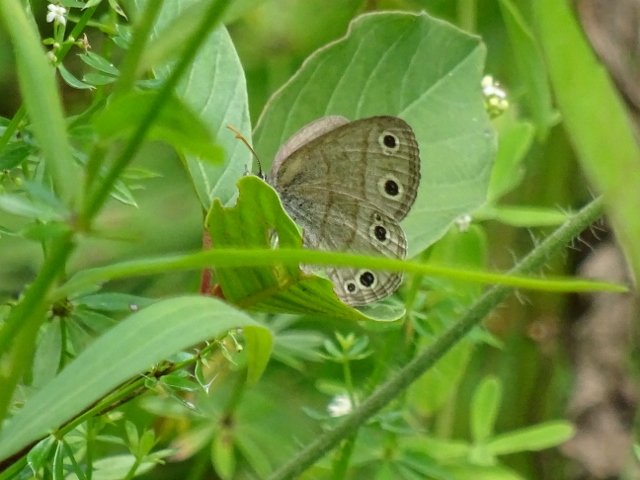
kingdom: Animalia
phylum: Arthropoda
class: Insecta
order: Lepidoptera
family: Nymphalidae
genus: Euptychia
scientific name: Euptychia cymela
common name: Little Wood Satyr
